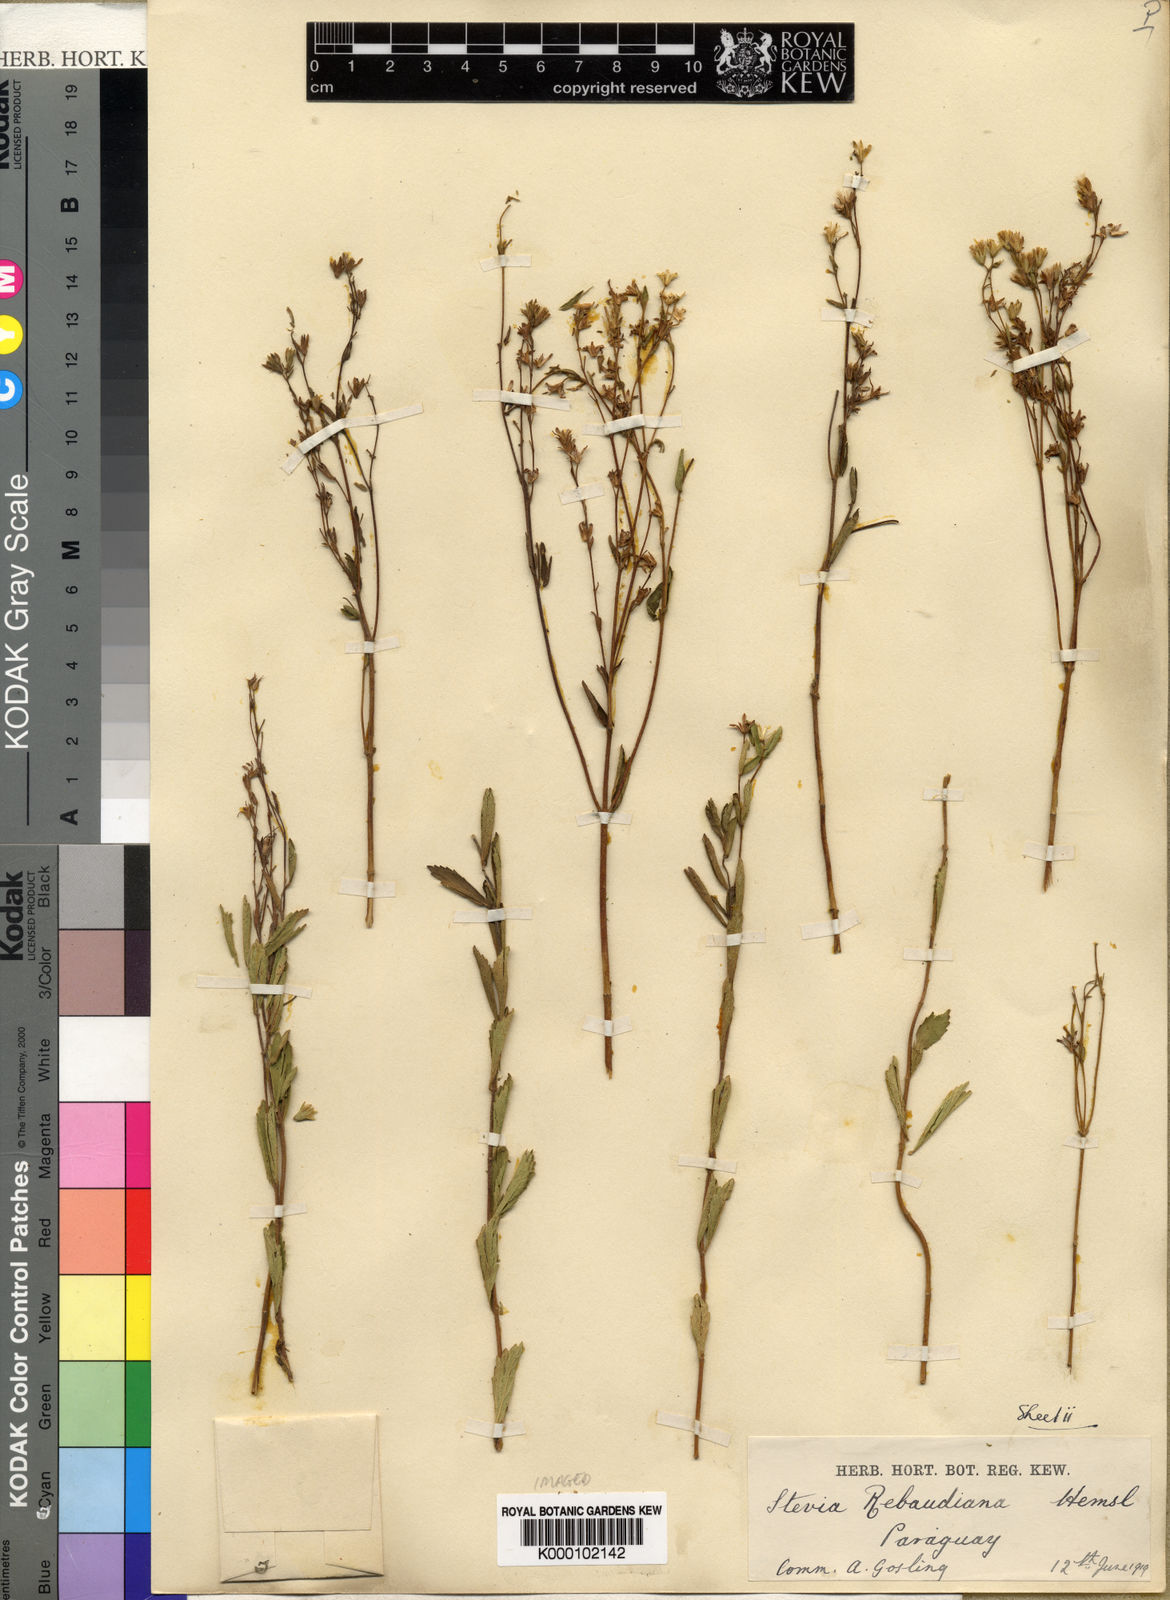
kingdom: Plantae
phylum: Tracheophyta
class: Magnoliopsida
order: Asterales
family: Asteraceae
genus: Stevia
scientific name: Stevia rebaudiana
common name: Stevia
